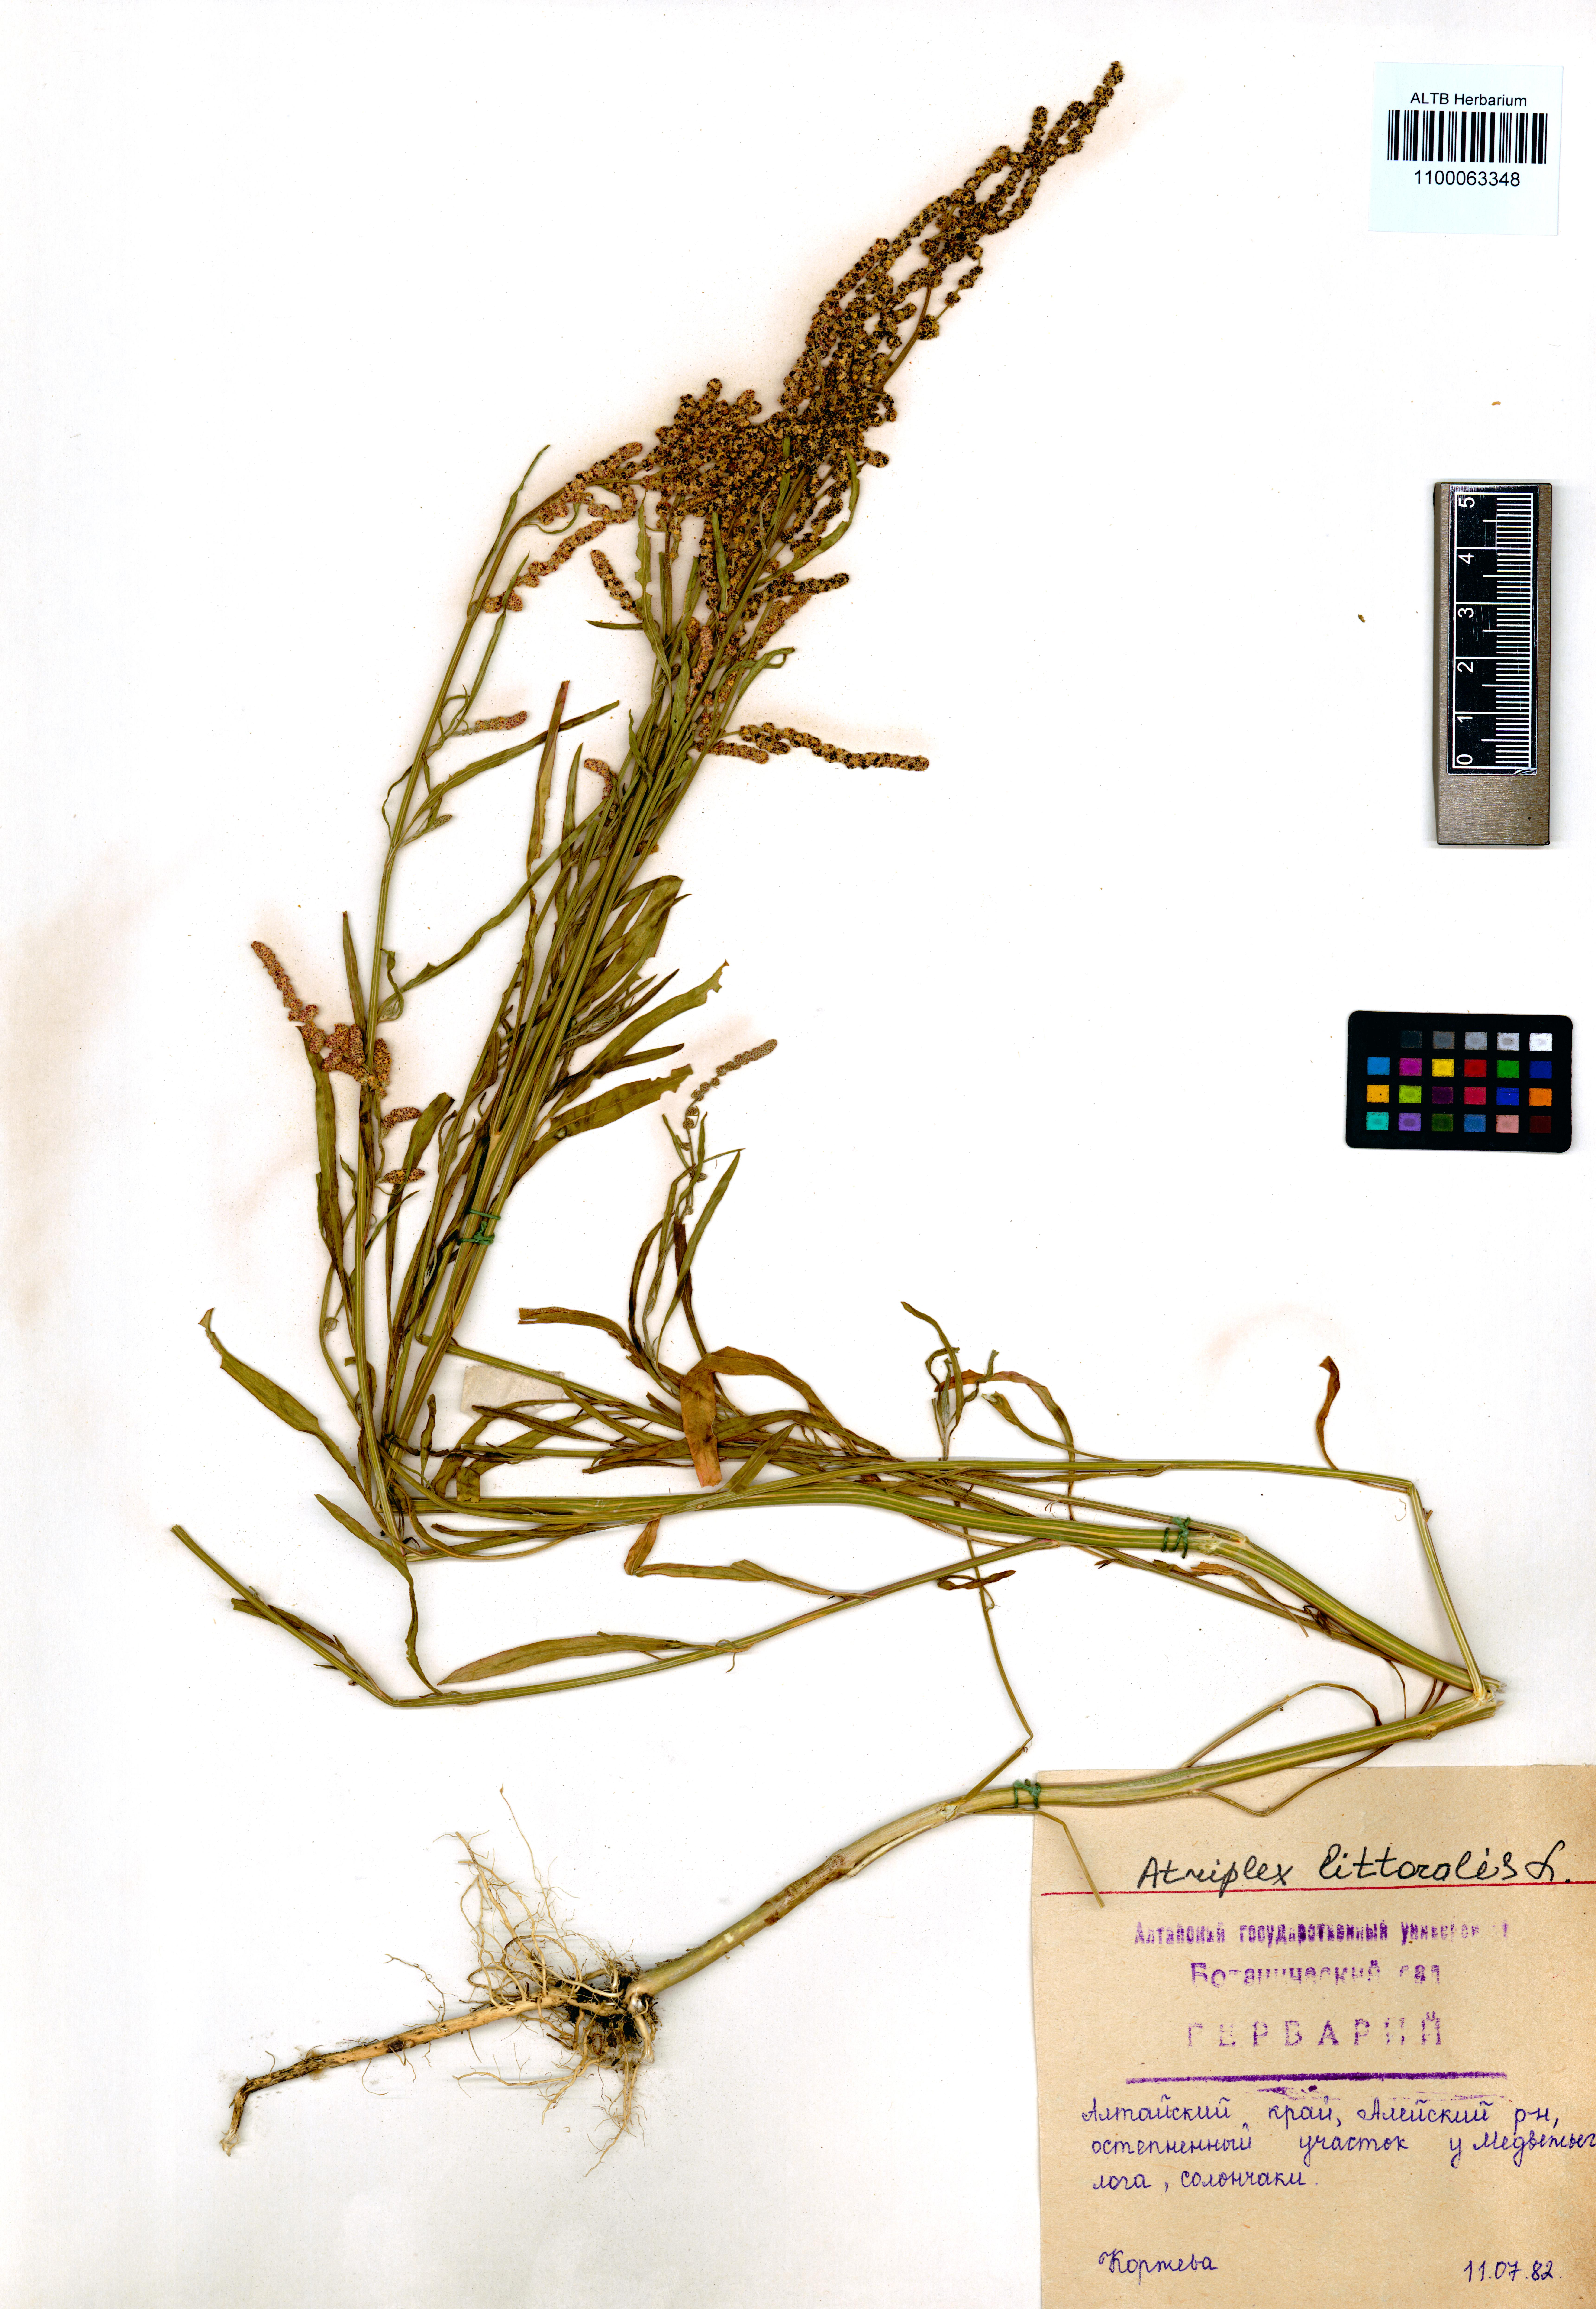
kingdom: Plantae
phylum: Tracheophyta
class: Magnoliopsida
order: Caryophyllales
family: Amaranthaceae
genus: Atriplex
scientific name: Atriplex littoralis
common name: Grass-leaved orache
